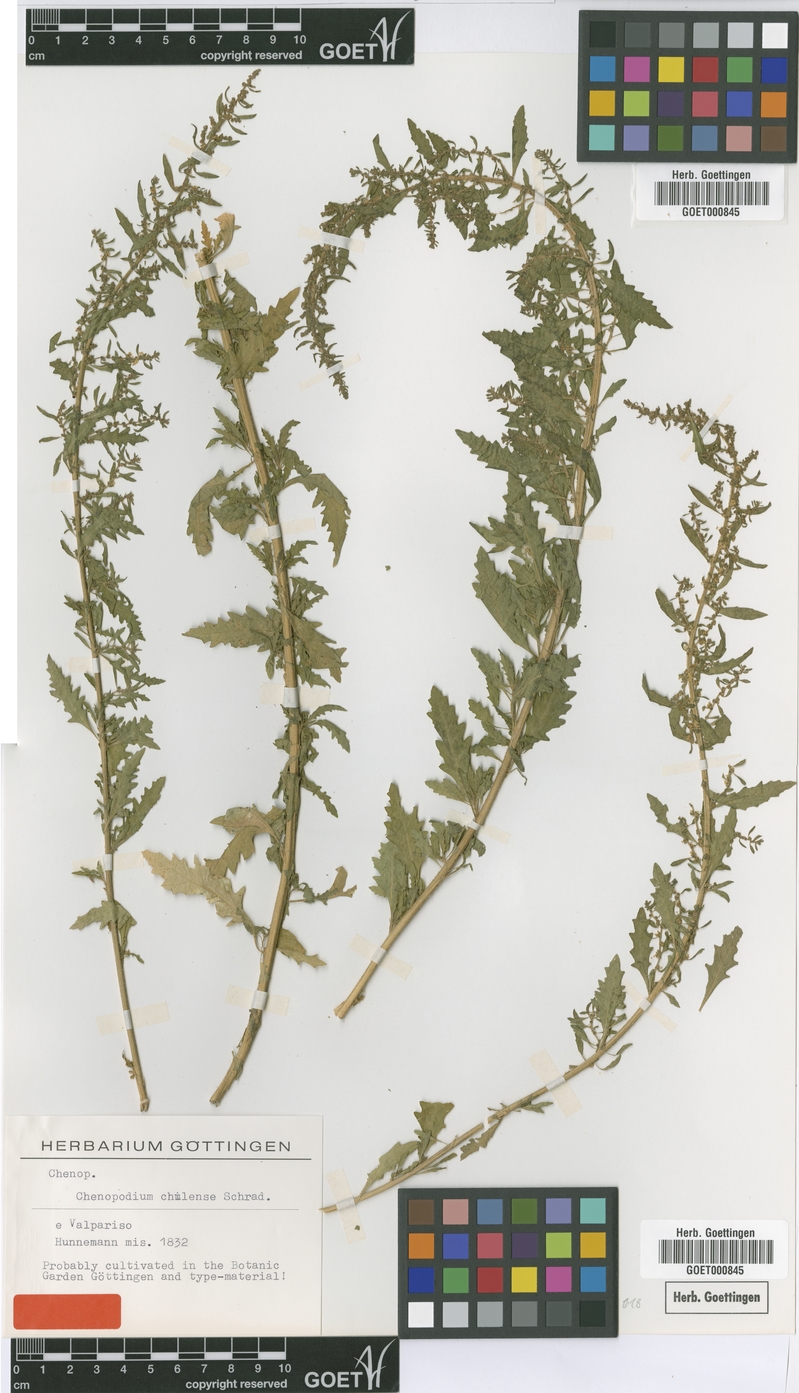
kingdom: Plantae
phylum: Tracheophyta
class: Magnoliopsida
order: Caryophyllales
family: Amaranthaceae
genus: Dysphania
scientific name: Dysphania chilensis
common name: Chilean wormseed
